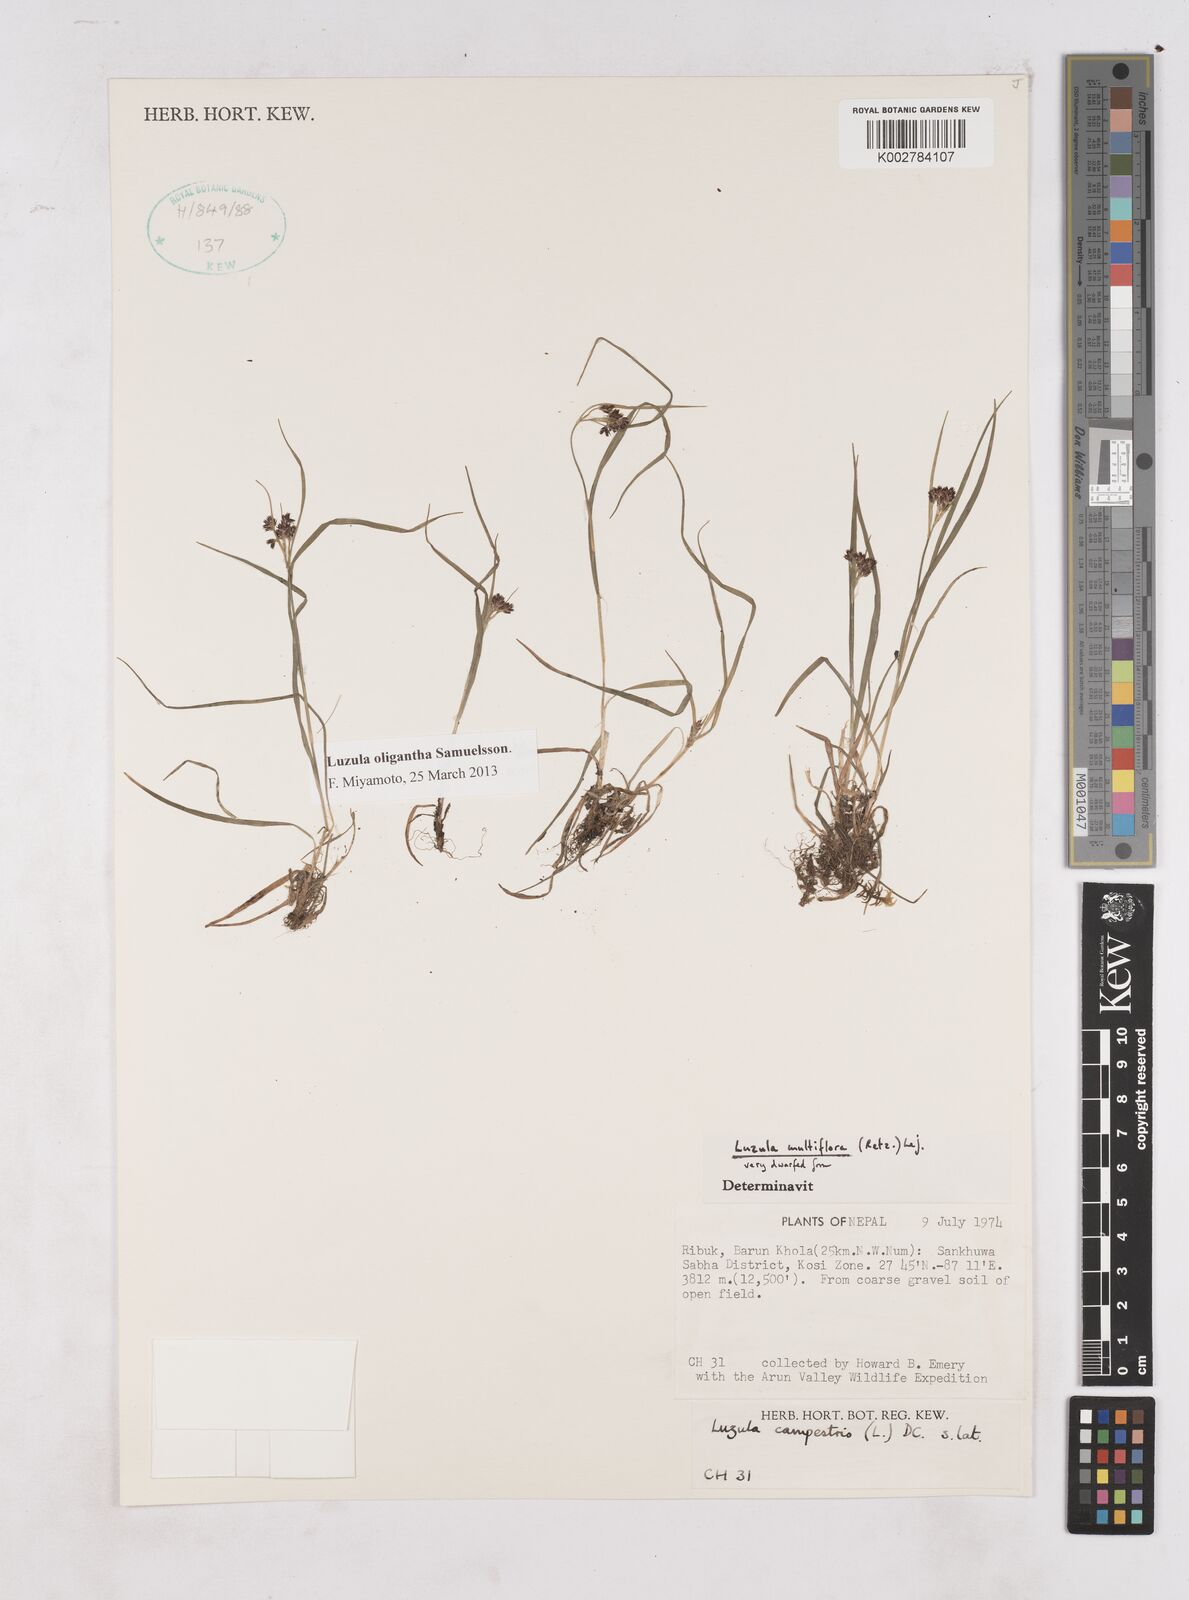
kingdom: Plantae
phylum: Tracheophyta
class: Liliopsida
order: Poales
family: Juncaceae
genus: Luzula
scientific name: Luzula
